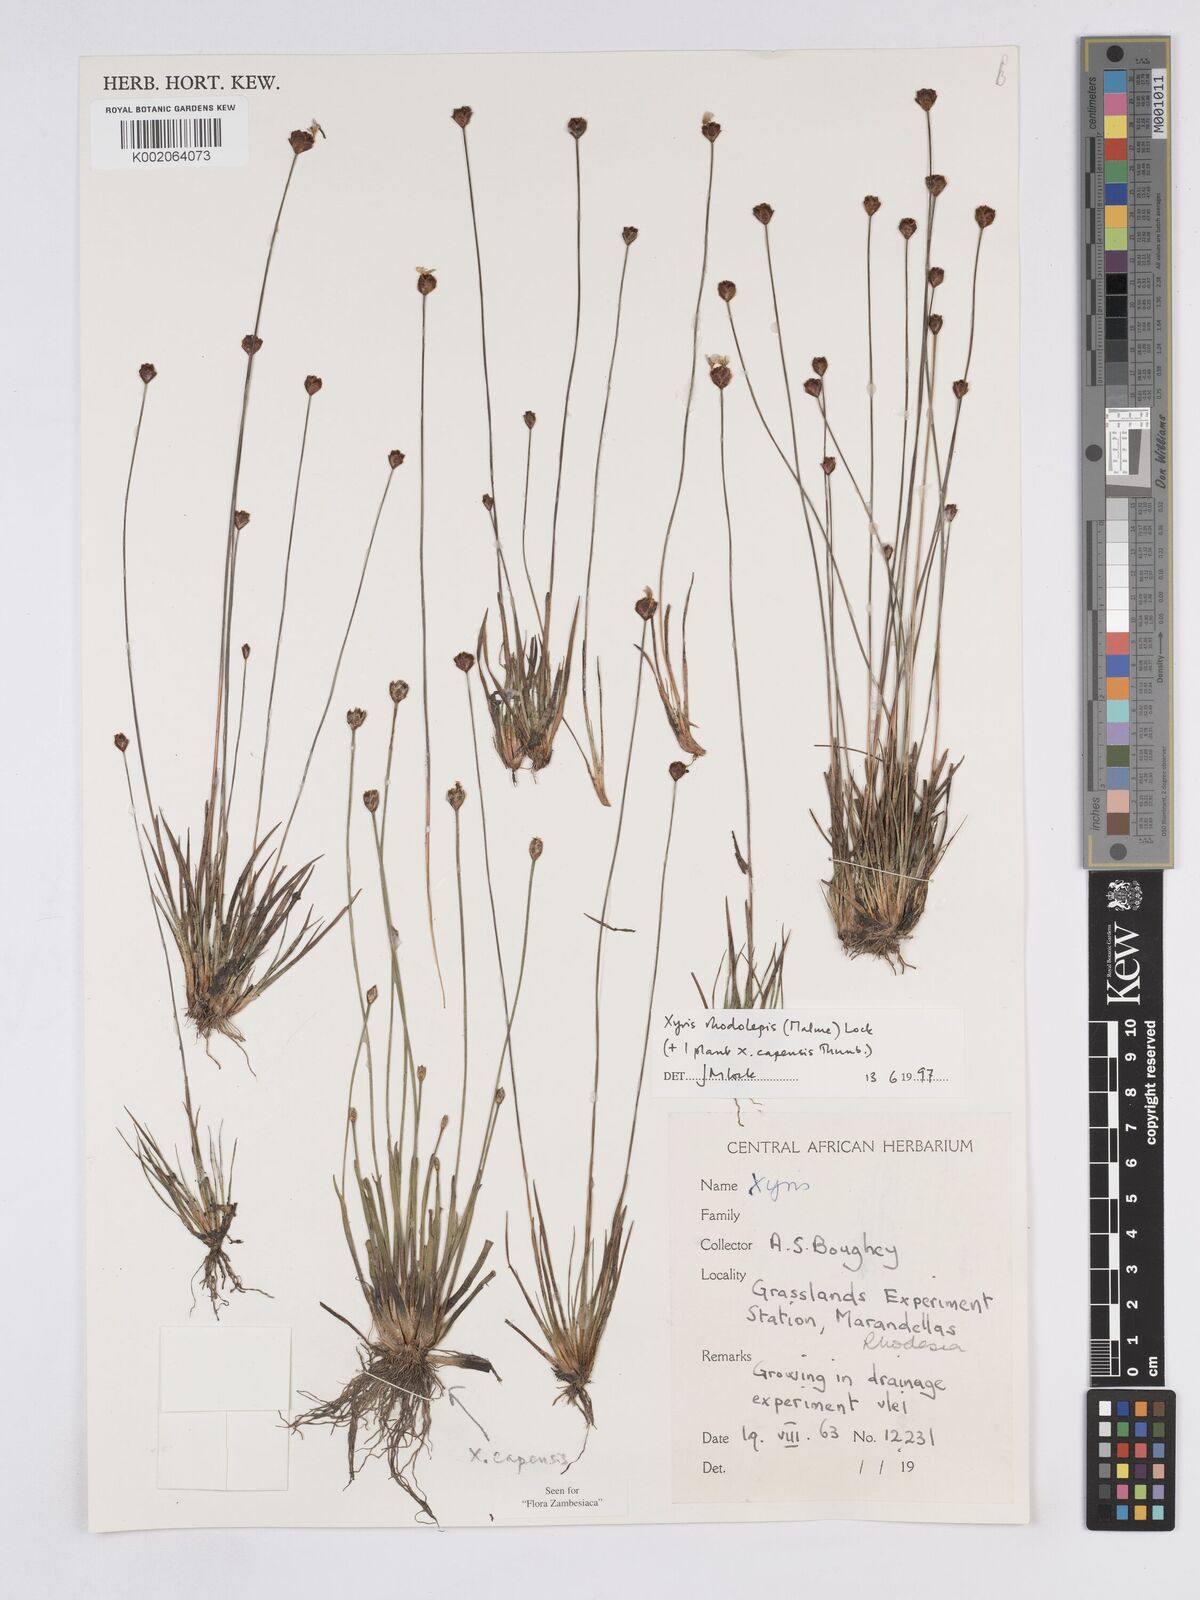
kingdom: Plantae
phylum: Tracheophyta
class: Liliopsida
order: Poales
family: Xyridaceae
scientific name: Xyridaceae
